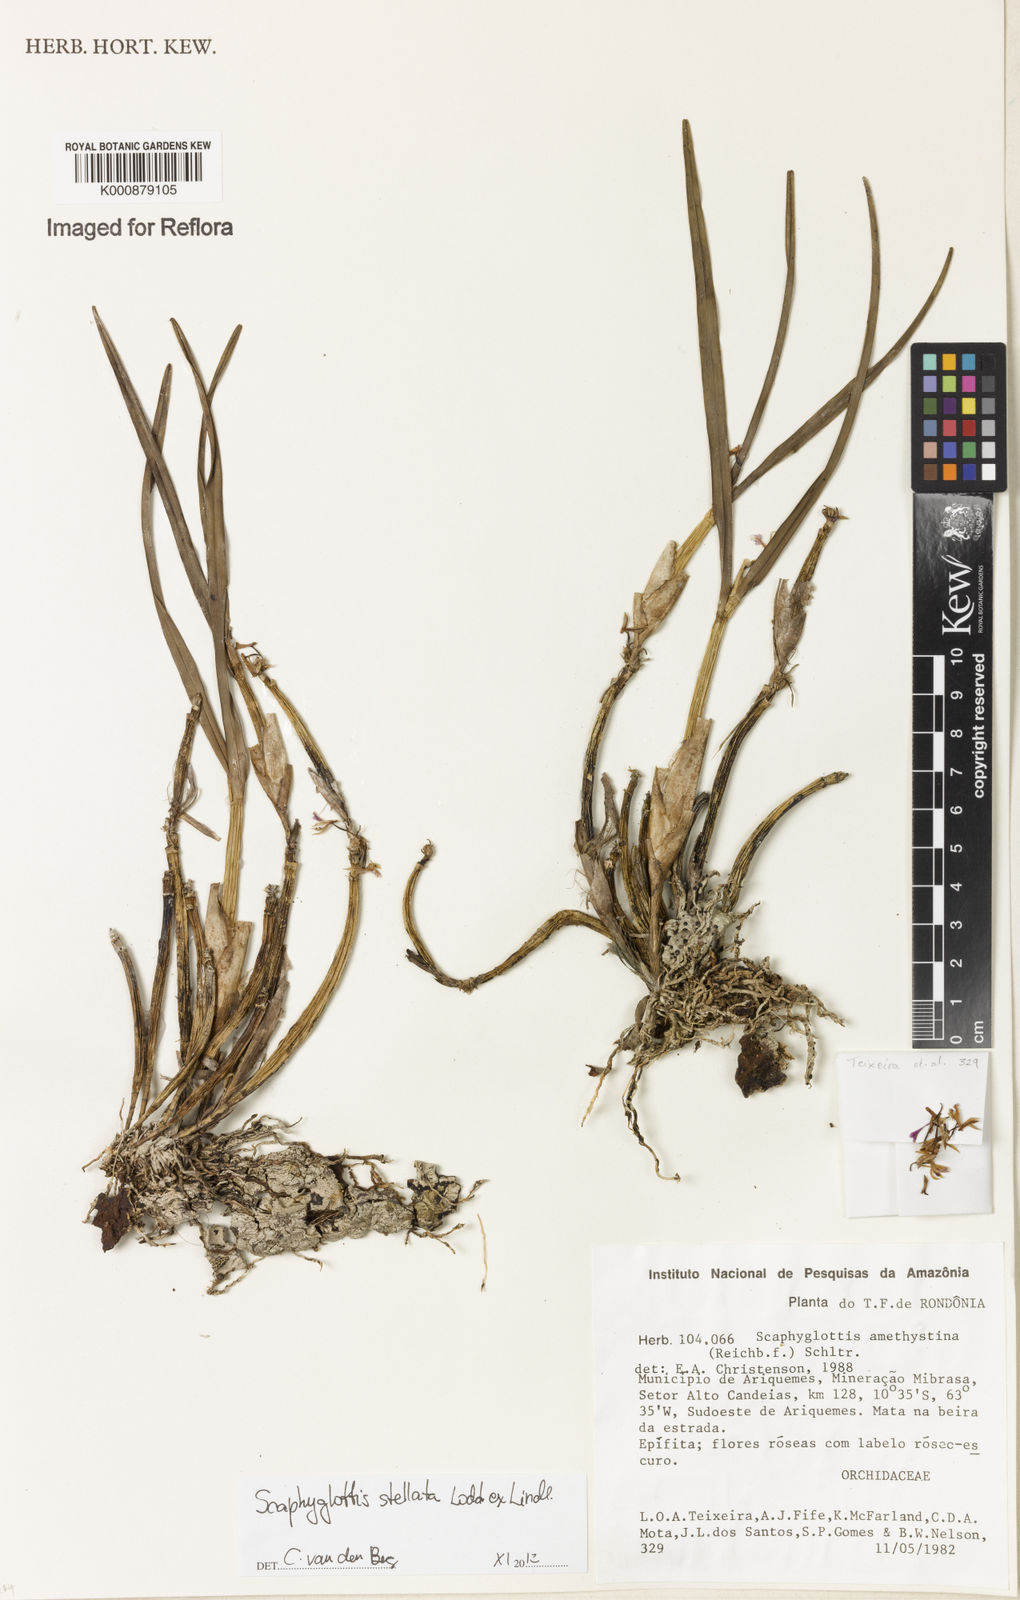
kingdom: Plantae
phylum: Tracheophyta
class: Liliopsida
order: Asparagales
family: Orchidaceae
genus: Scaphyglottis
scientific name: Scaphyglottis stellata
